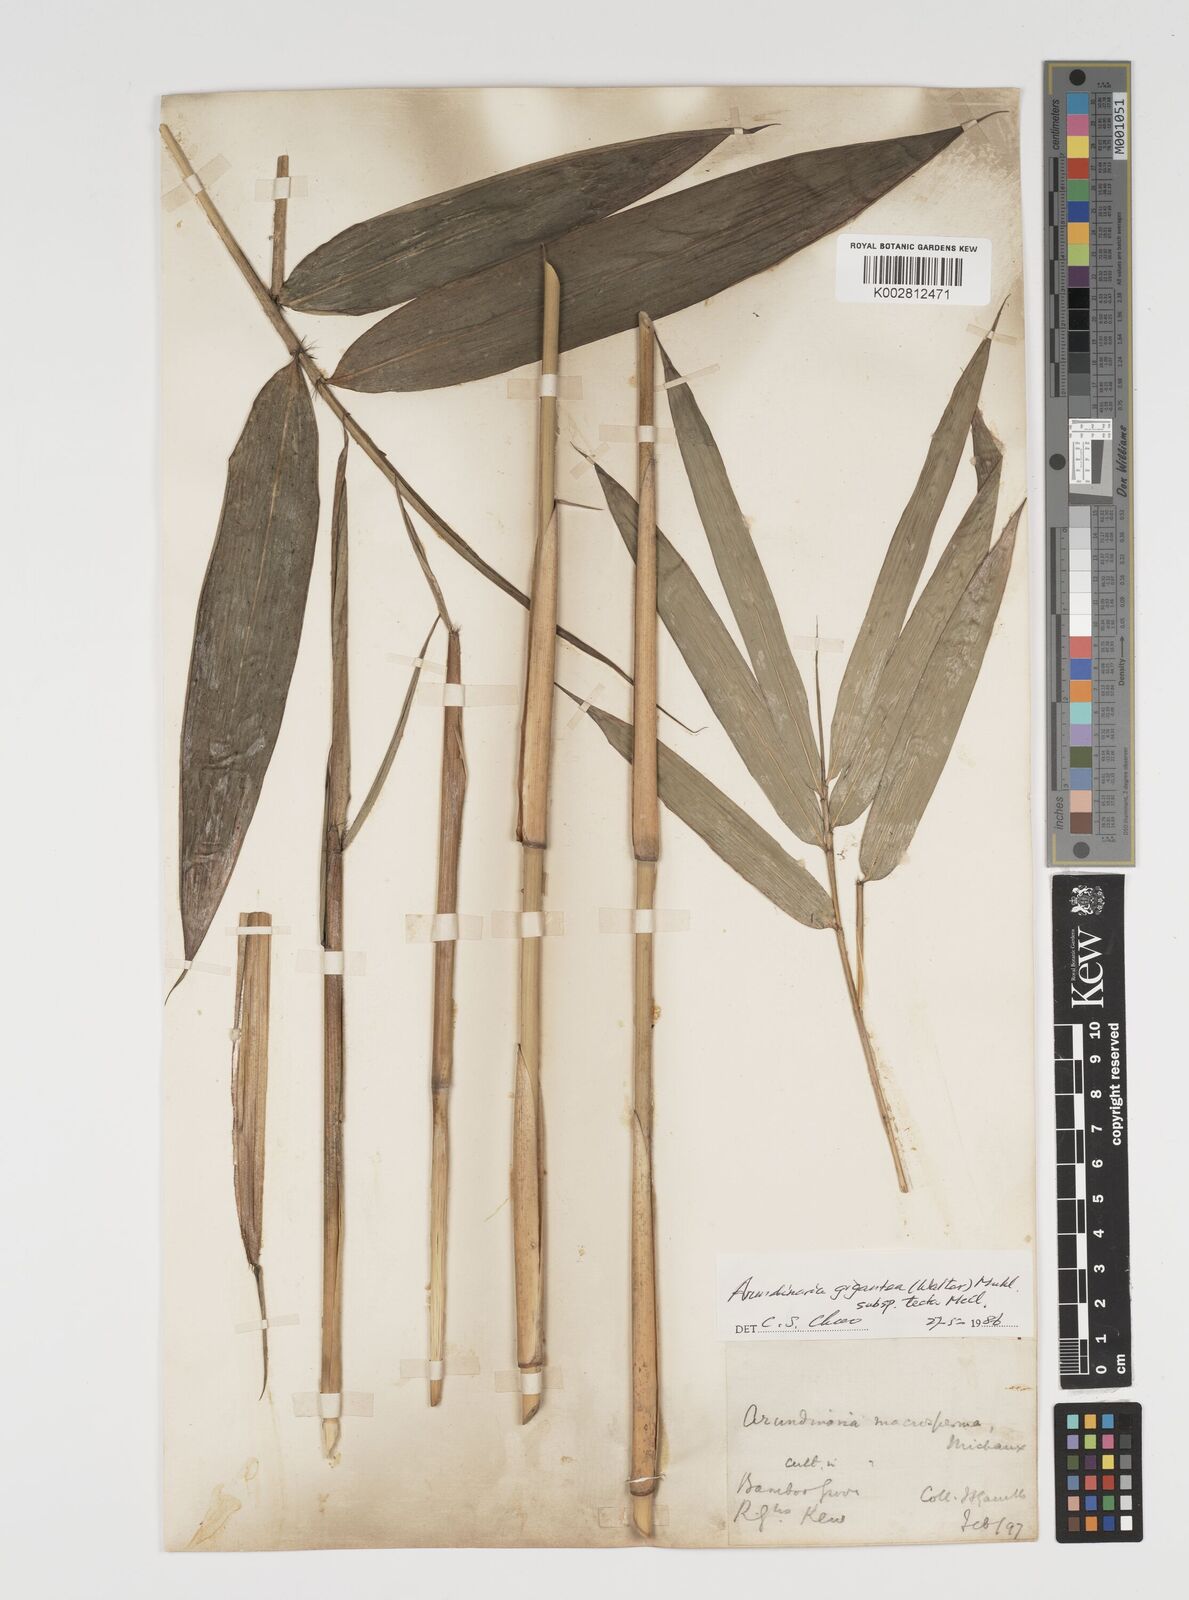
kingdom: Plantae
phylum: Tracheophyta
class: Liliopsida
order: Poales
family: Poaceae
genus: Arundinaria
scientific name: Arundinaria tecta
